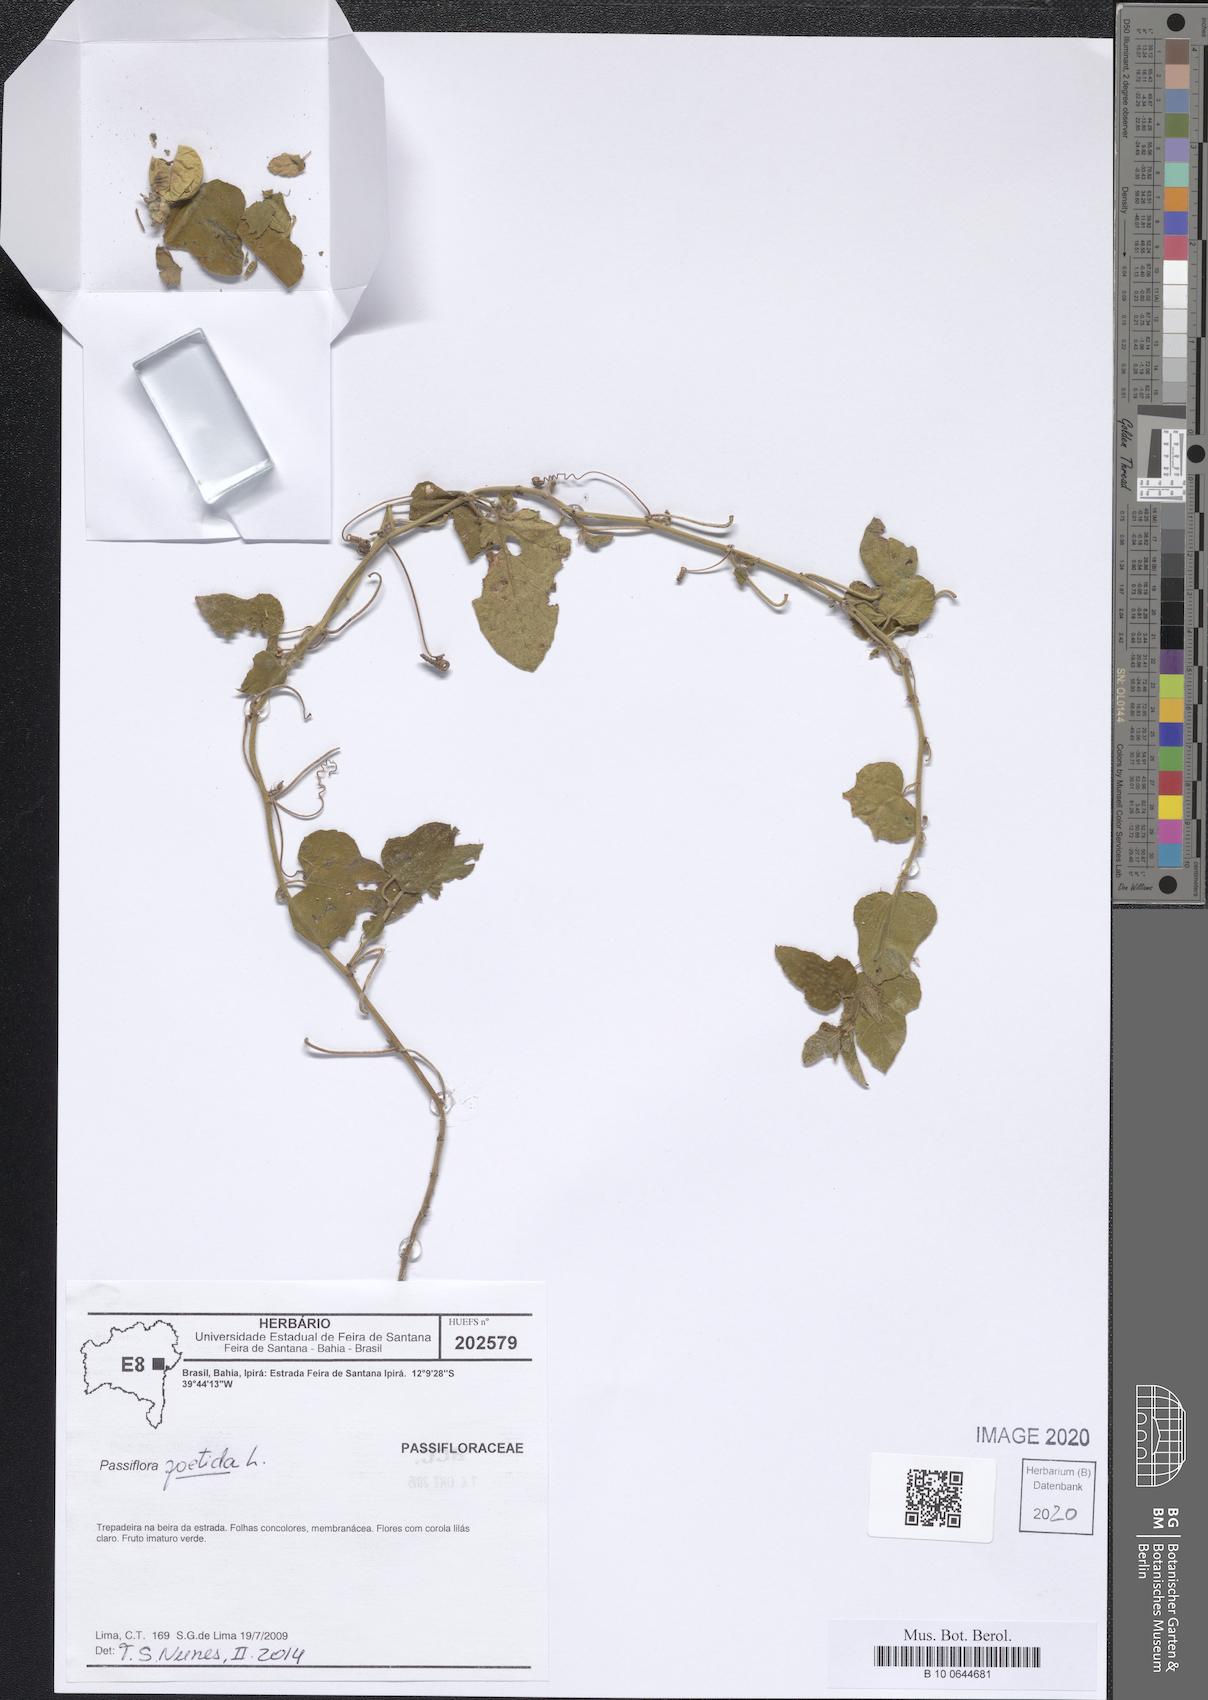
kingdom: Plantae
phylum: Tracheophyta
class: Magnoliopsida
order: Malpighiales
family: Passifloraceae
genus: Passiflora
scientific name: Passiflora foetida
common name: Fetid passionflower
